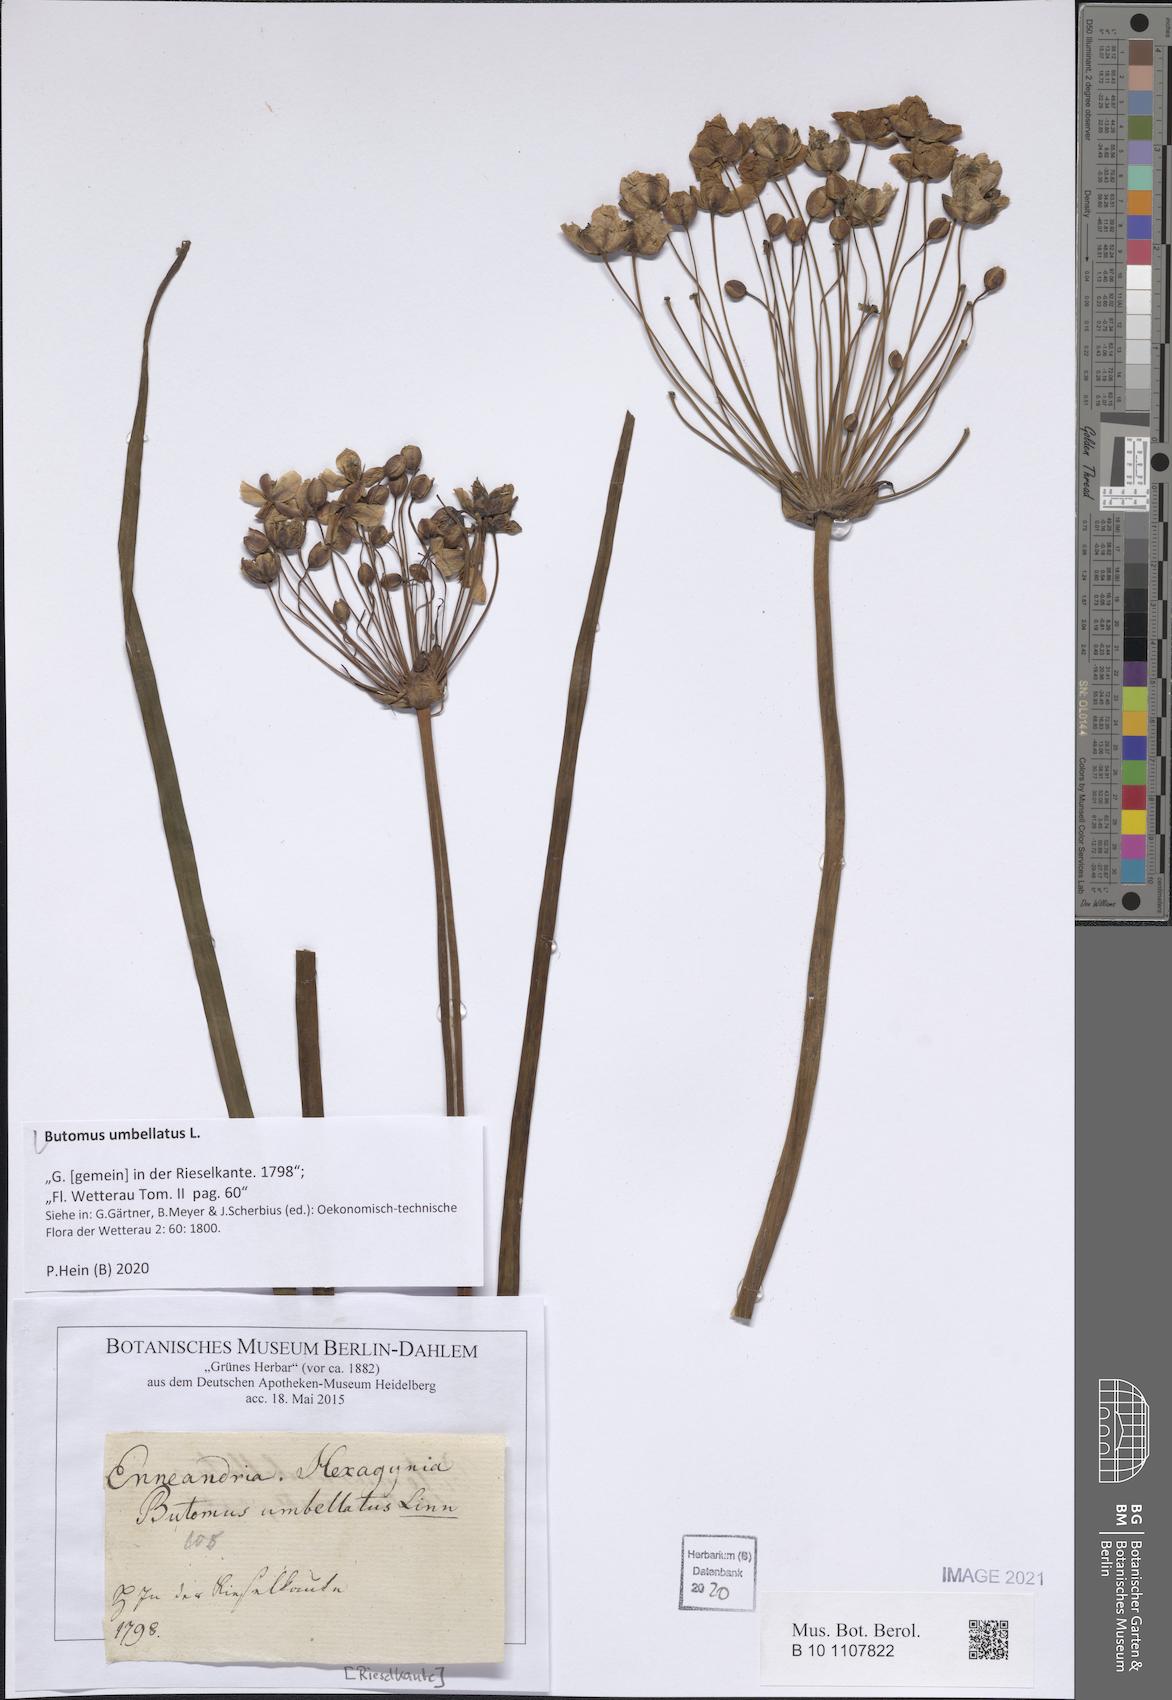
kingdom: Plantae
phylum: Tracheophyta
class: Liliopsida
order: Alismatales
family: Butomaceae
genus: Butomus
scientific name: Butomus umbellatus
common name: Flowering-rush
